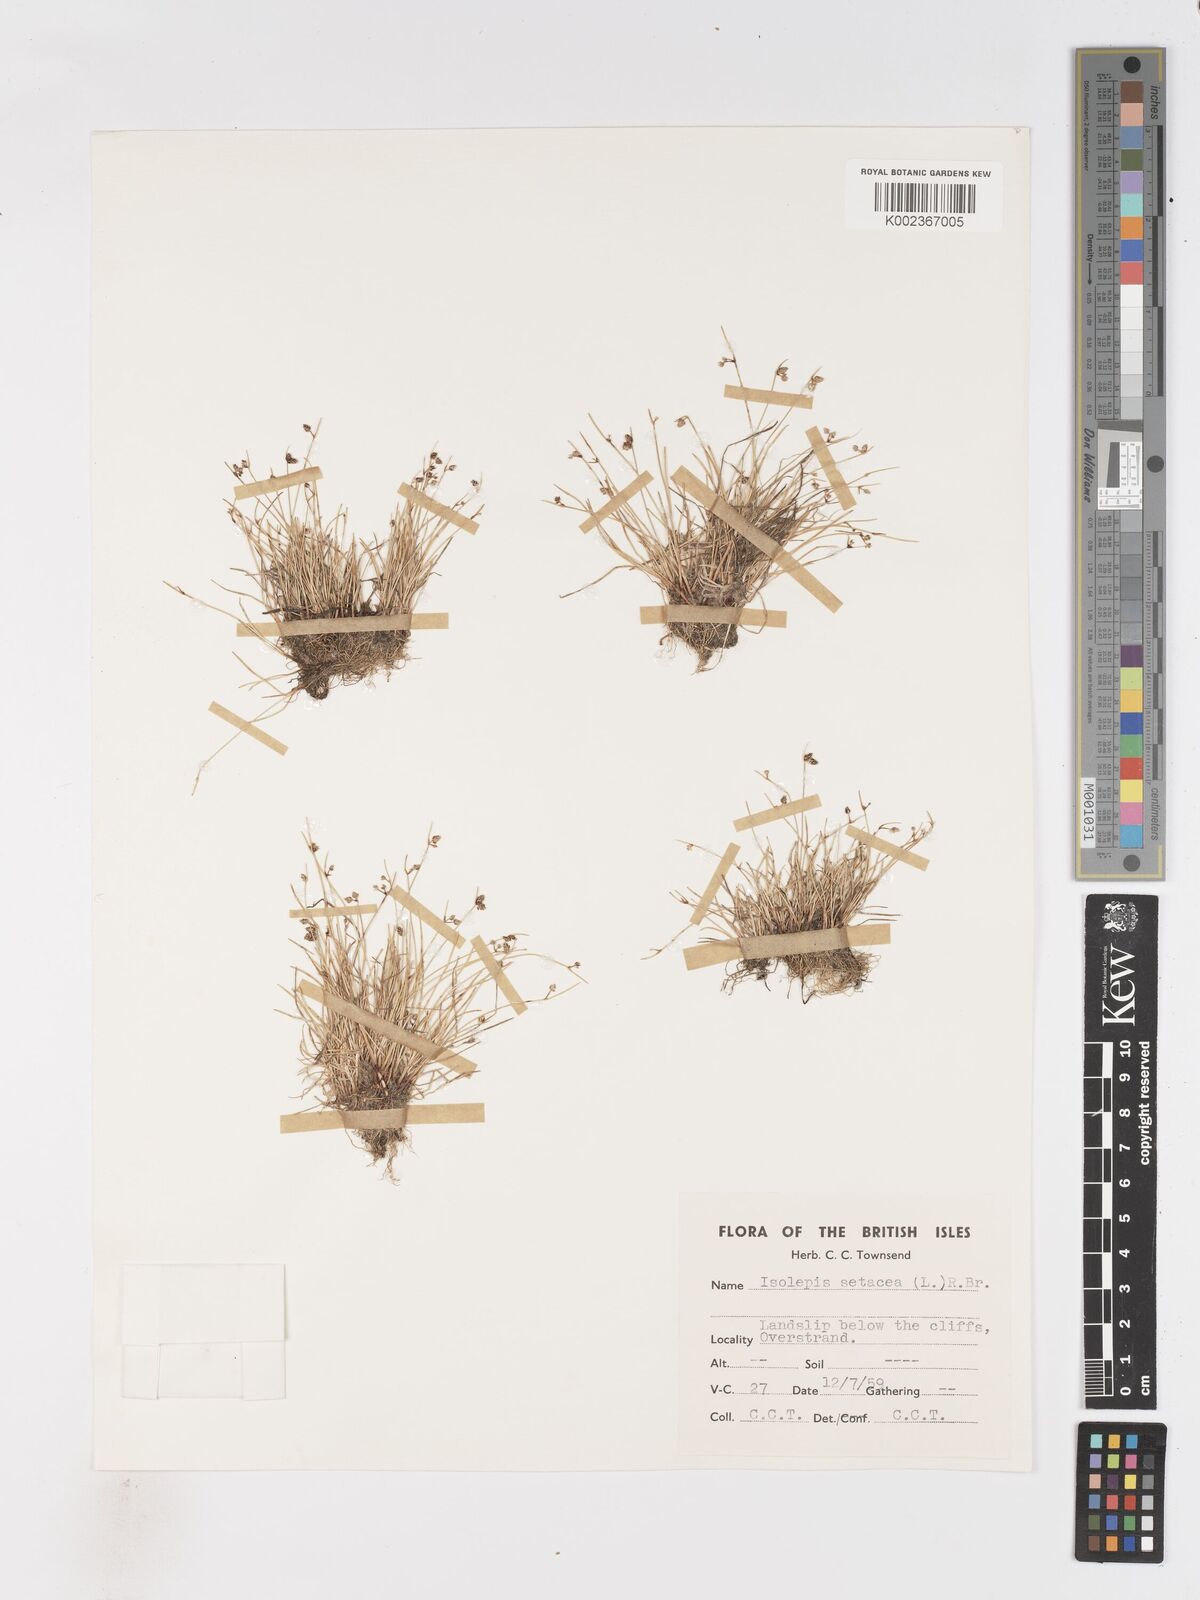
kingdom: Plantae
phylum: Tracheophyta
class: Liliopsida
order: Poales
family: Cyperaceae
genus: Isolepis
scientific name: Isolepis setacea
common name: Bristle club-rush
